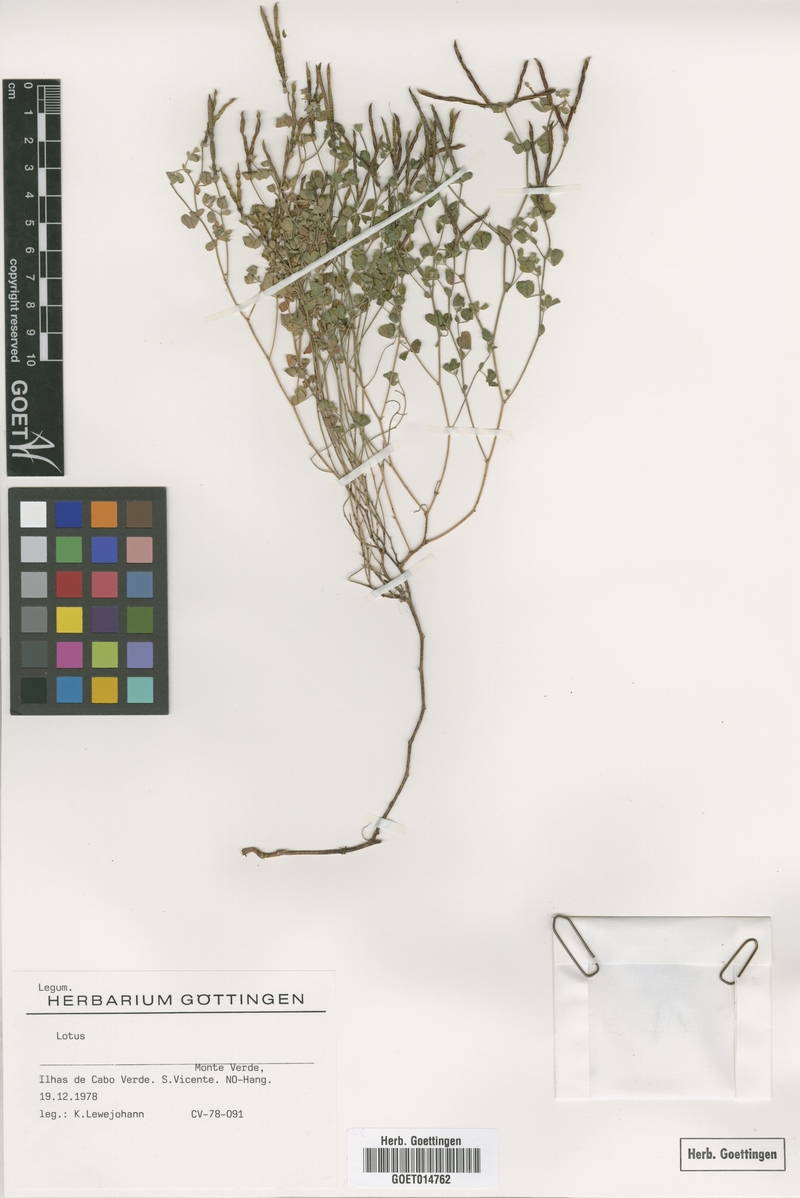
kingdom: Plantae
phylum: Tracheophyta
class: Magnoliopsida
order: Fabales
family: Fabaceae
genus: Lotus
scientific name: Lotus
